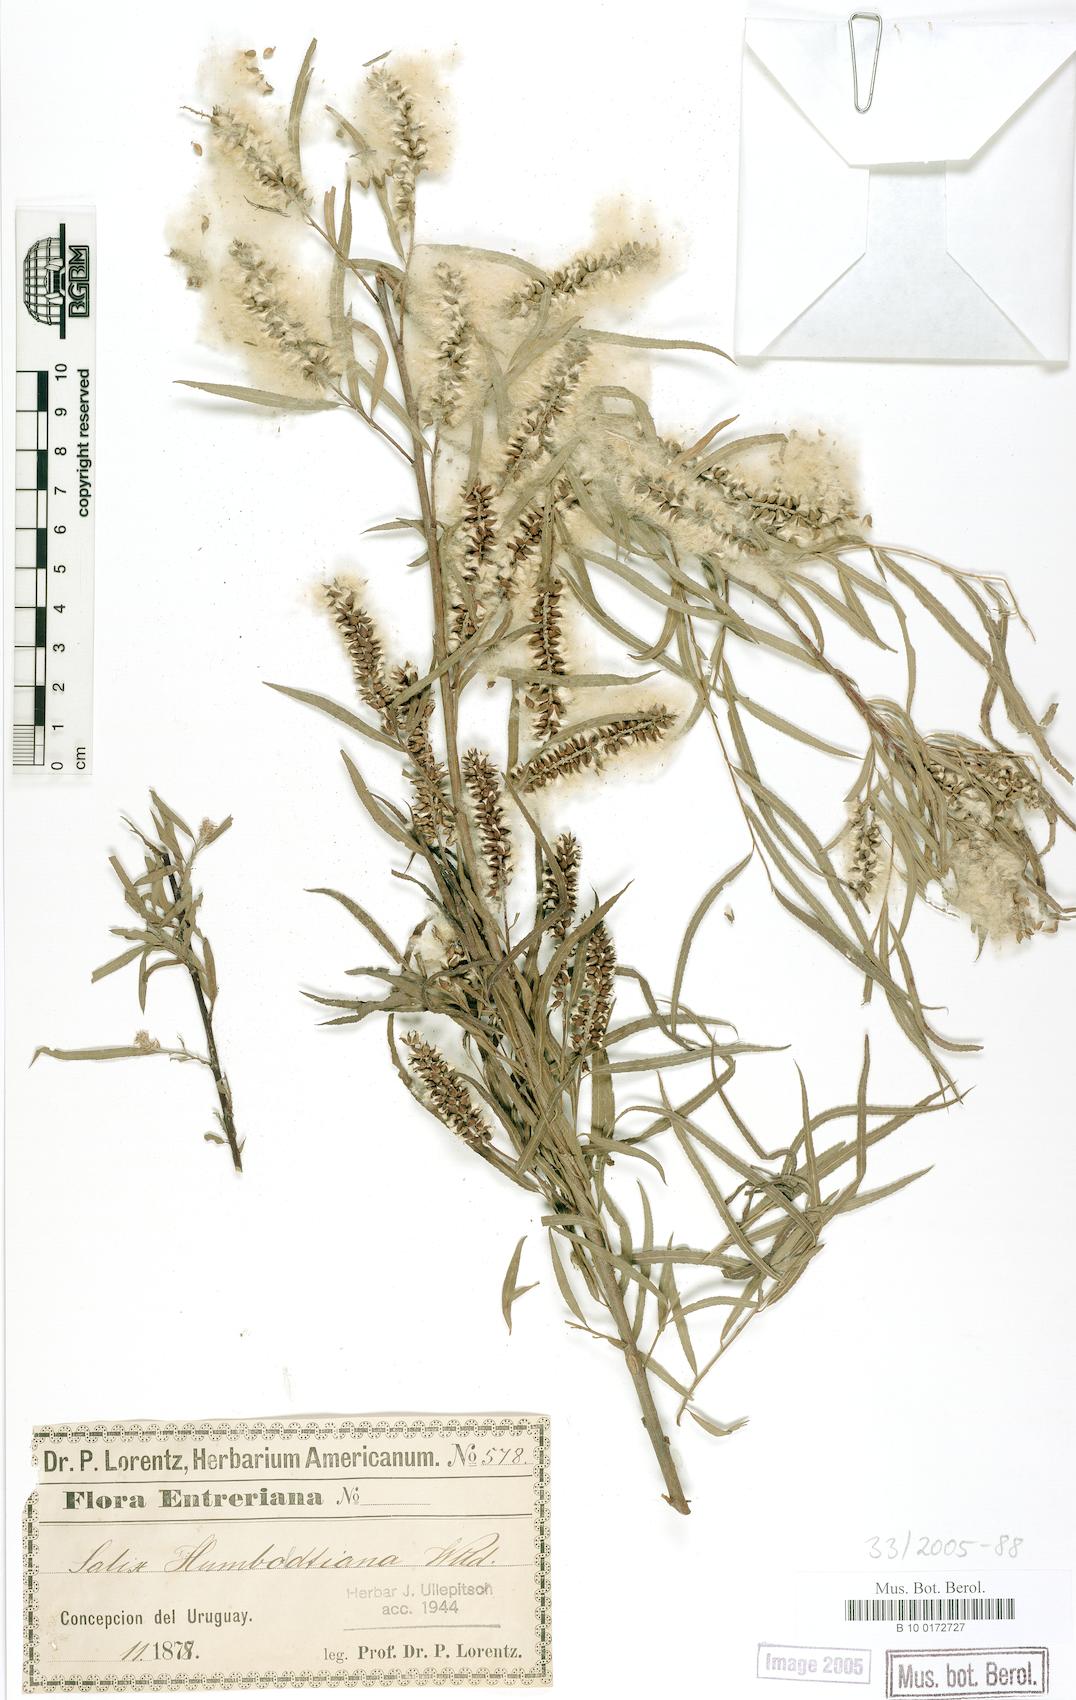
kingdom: Plantae
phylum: Tracheophyta
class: Magnoliopsida
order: Malpighiales
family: Salicaceae
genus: Salix
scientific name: Salix humboldtiana
